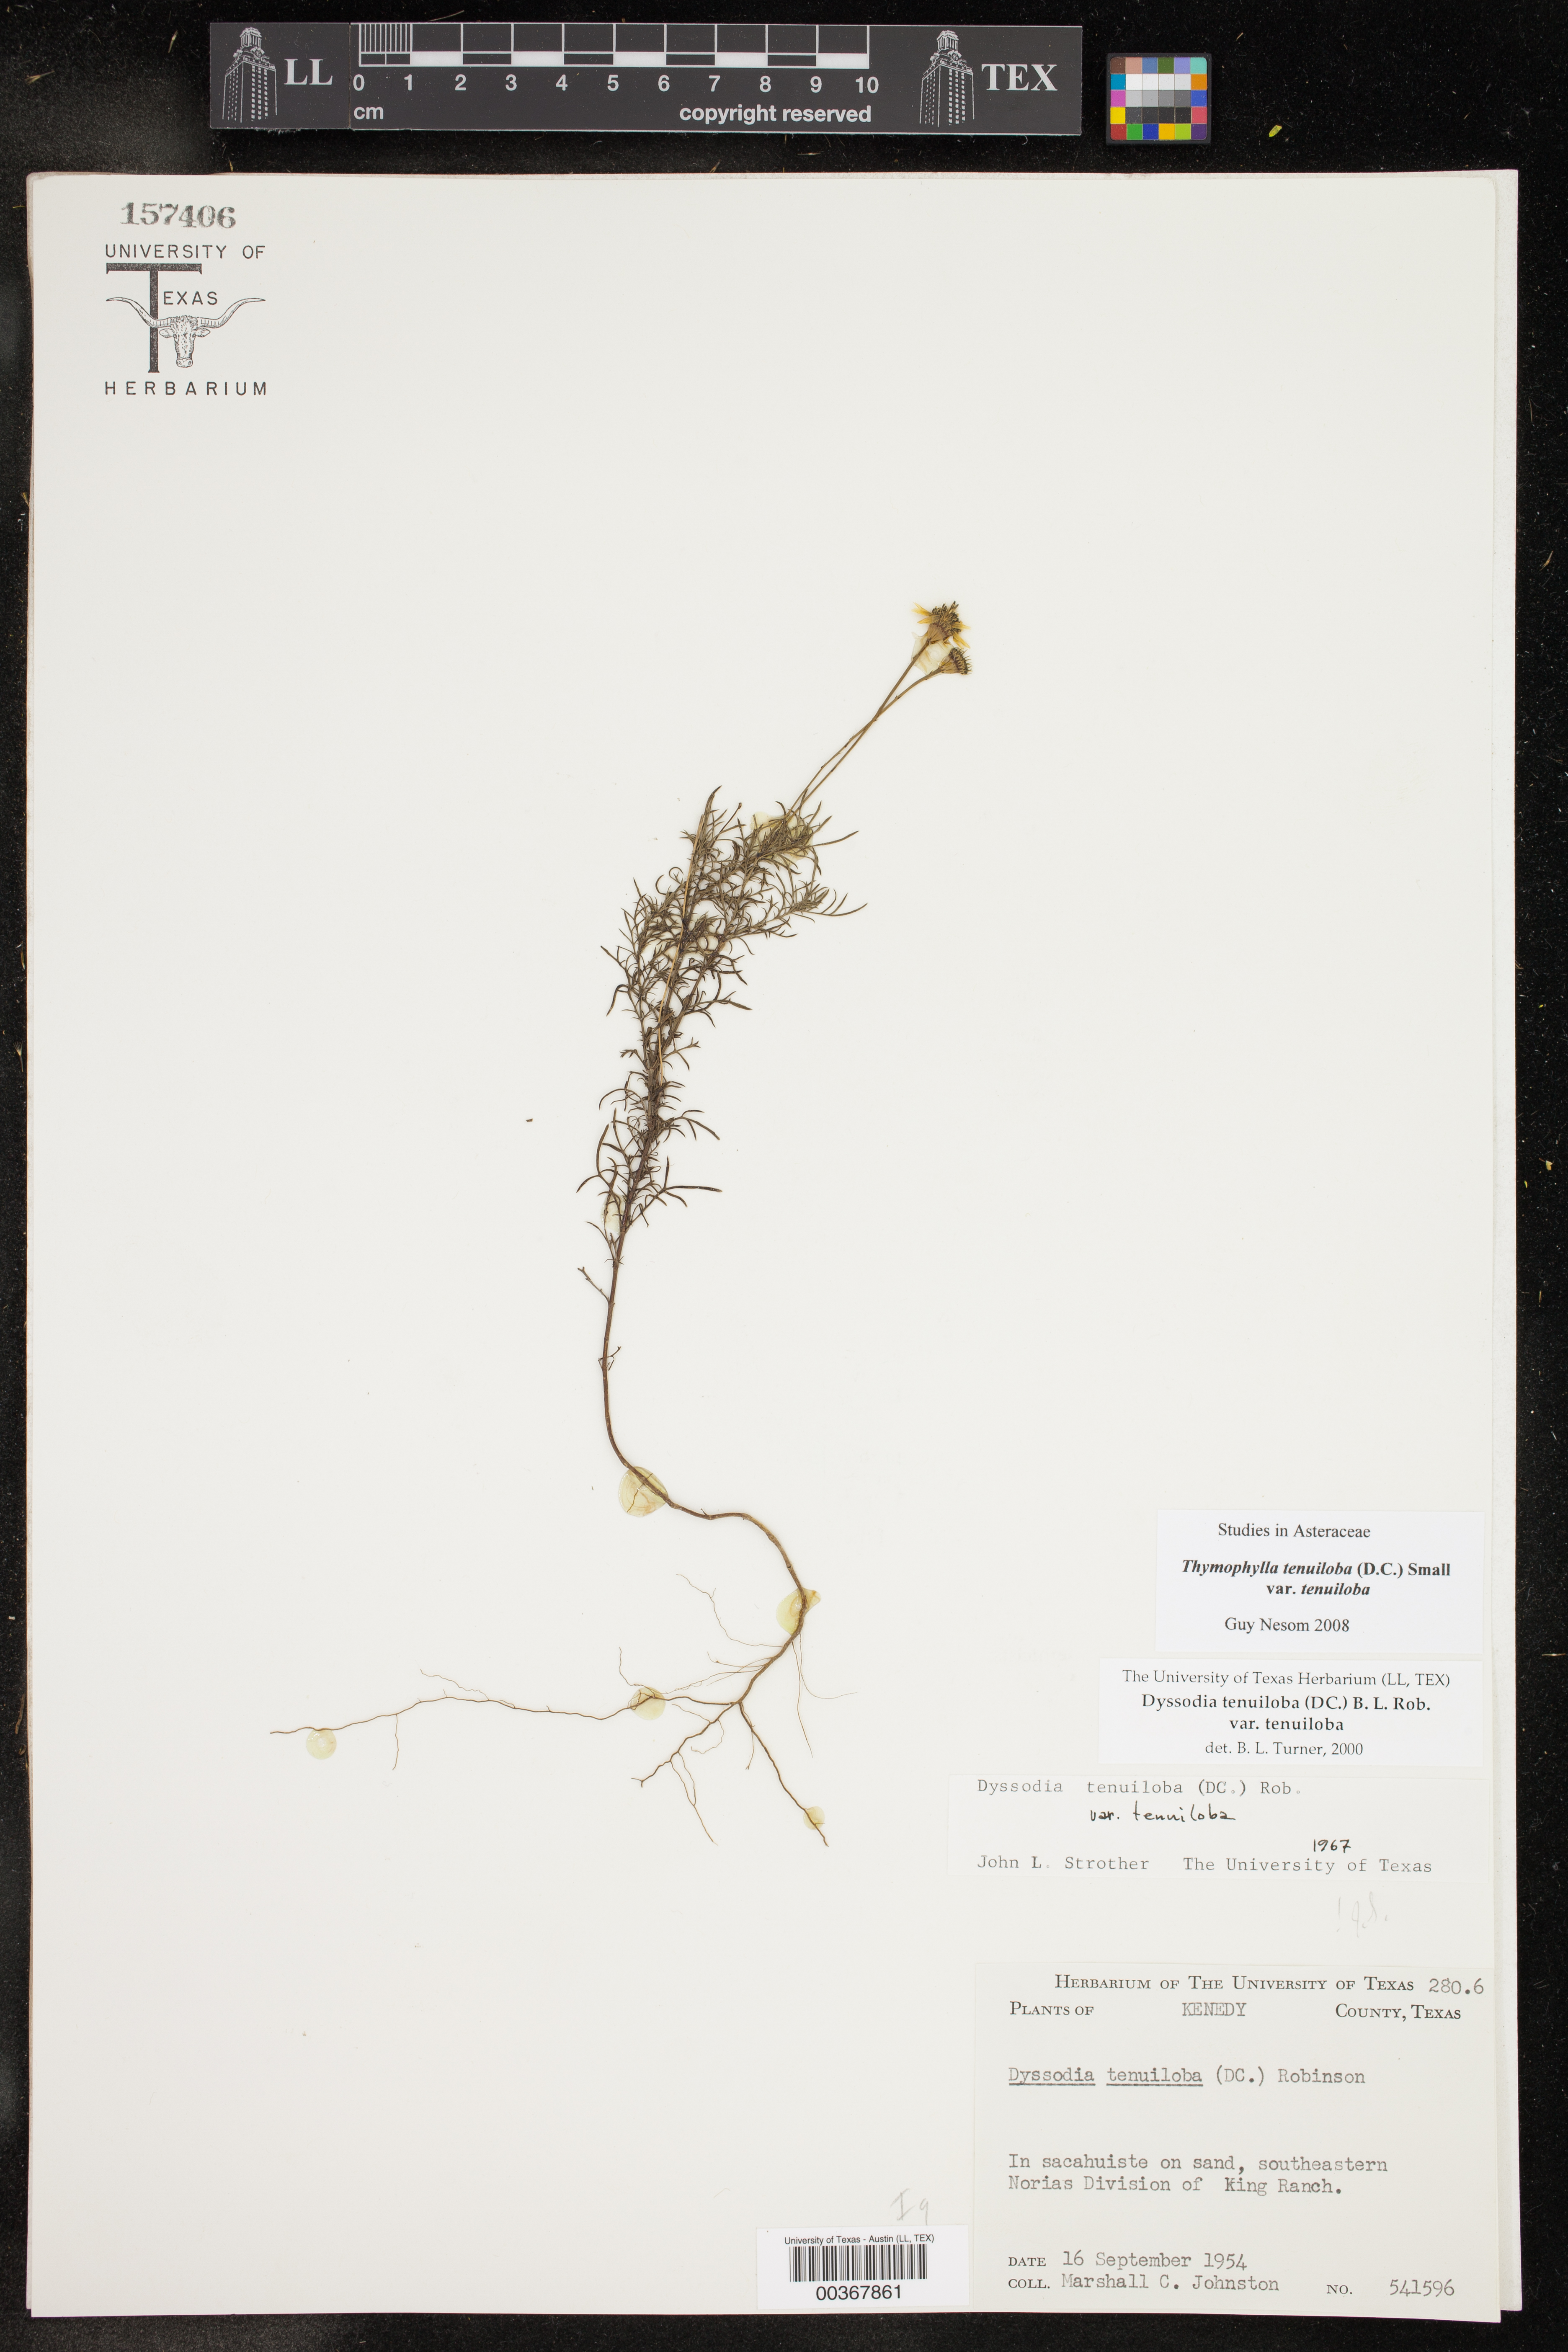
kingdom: Plantae
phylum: Tracheophyta
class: Magnoliopsida
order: Asterales
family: Asteraceae
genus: Thymophylla
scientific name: Thymophylla tenuiloba
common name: Dahlberg's daisy
